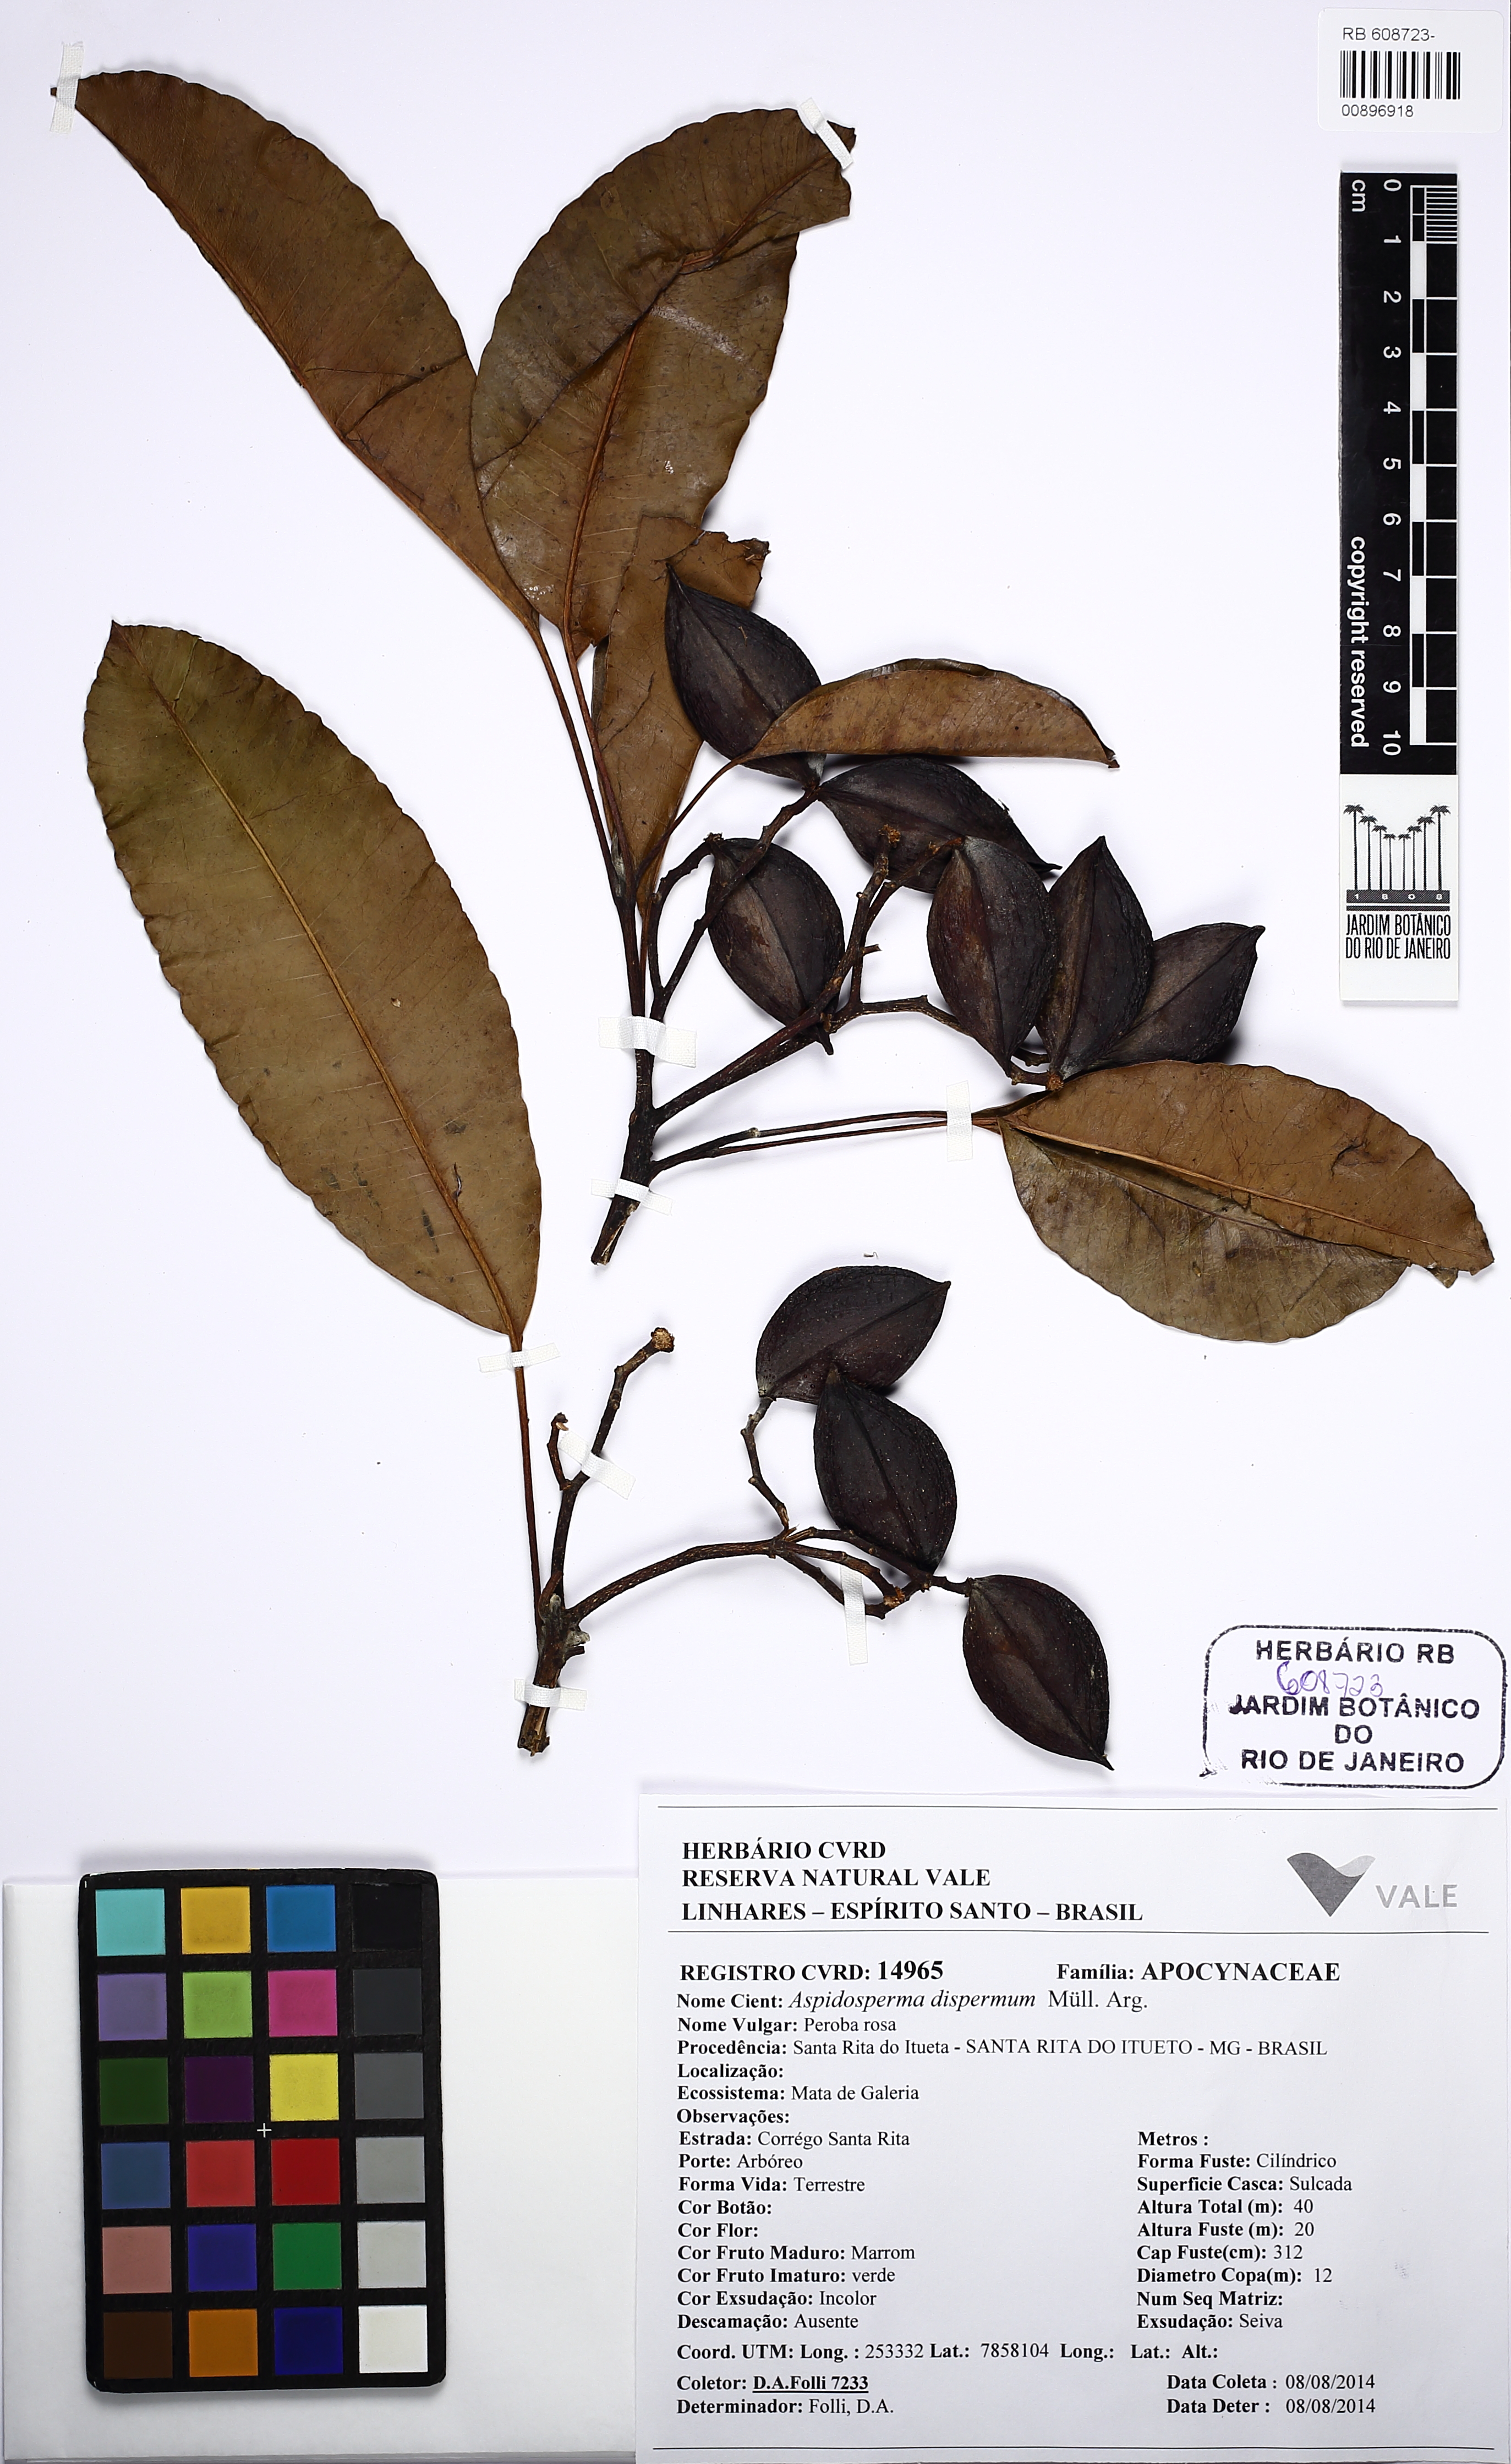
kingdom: Plantae
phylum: Tracheophyta
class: Magnoliopsida
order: Gentianales
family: Apocynaceae
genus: Aspidosperma
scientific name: Aspidosperma dispermum
